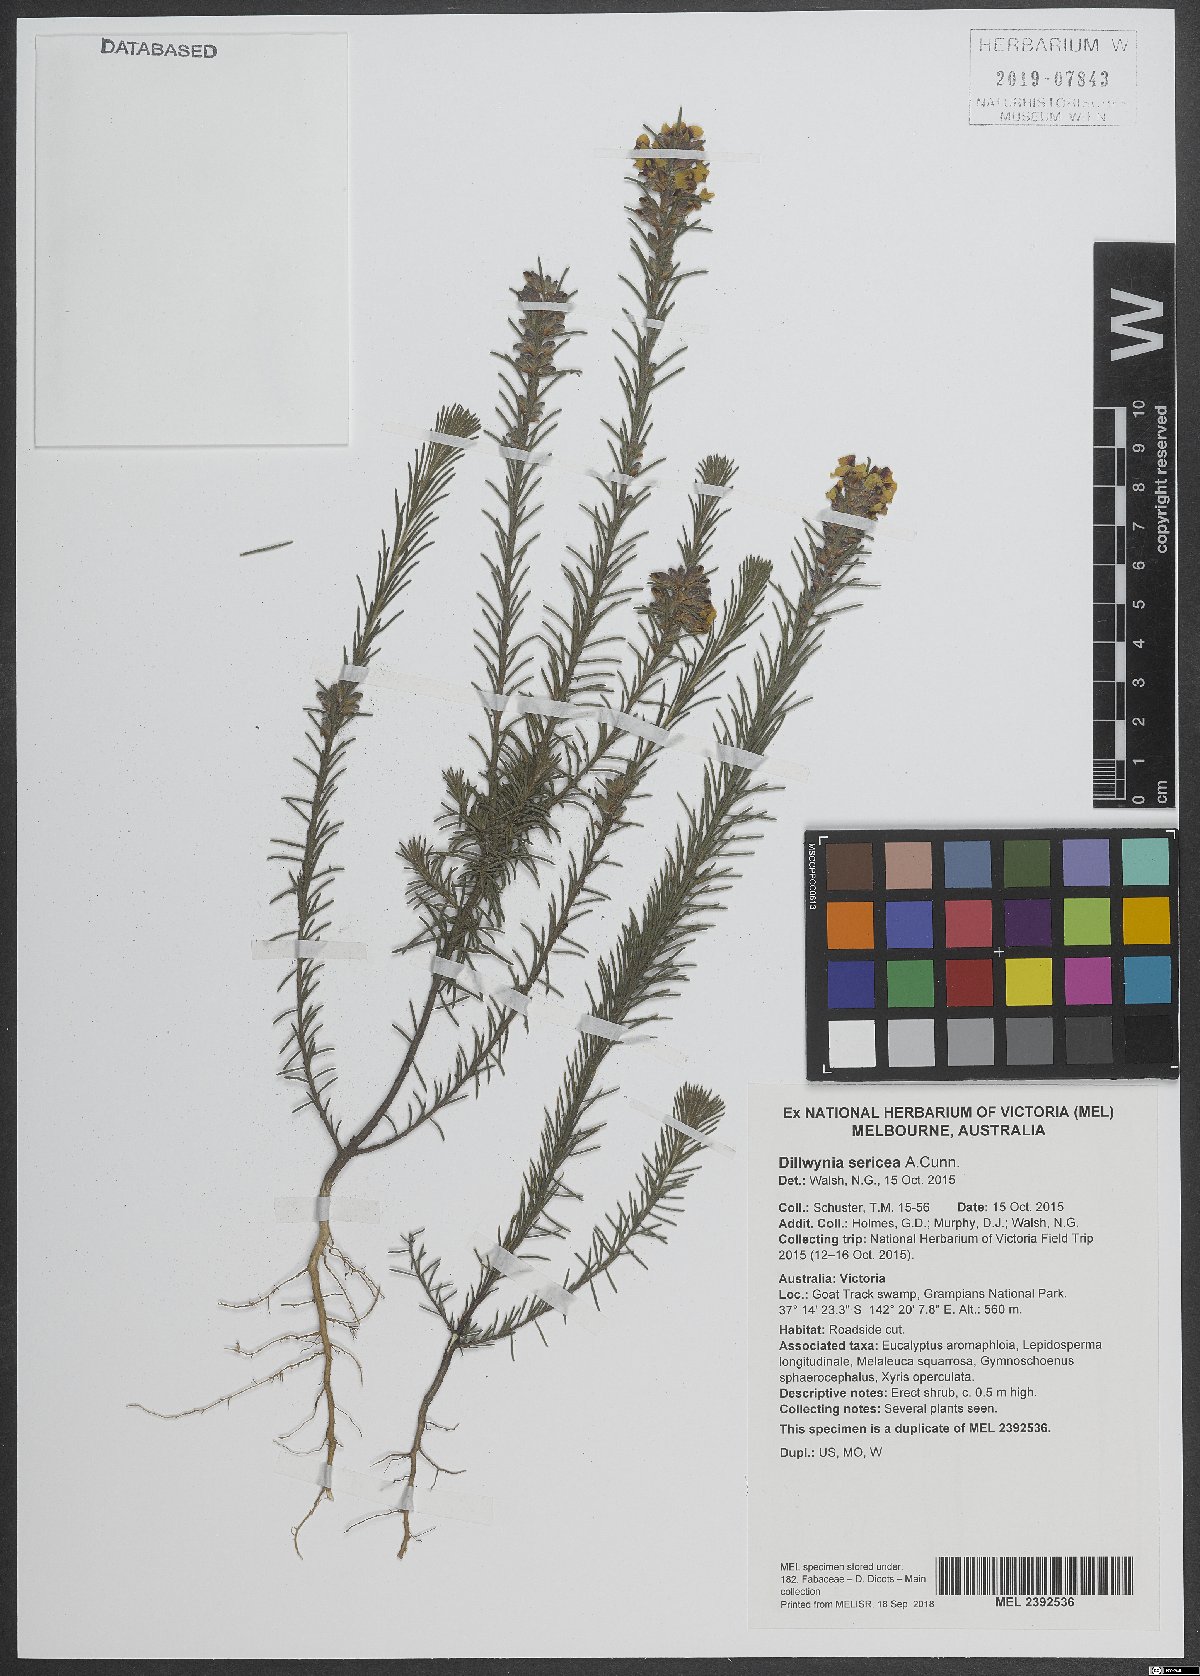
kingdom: Plantae
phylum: Tracheophyta
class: Magnoliopsida
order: Fabales
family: Fabaceae
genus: Dillwynia
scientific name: Dillwynia sericea
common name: Showy parrot-pea
